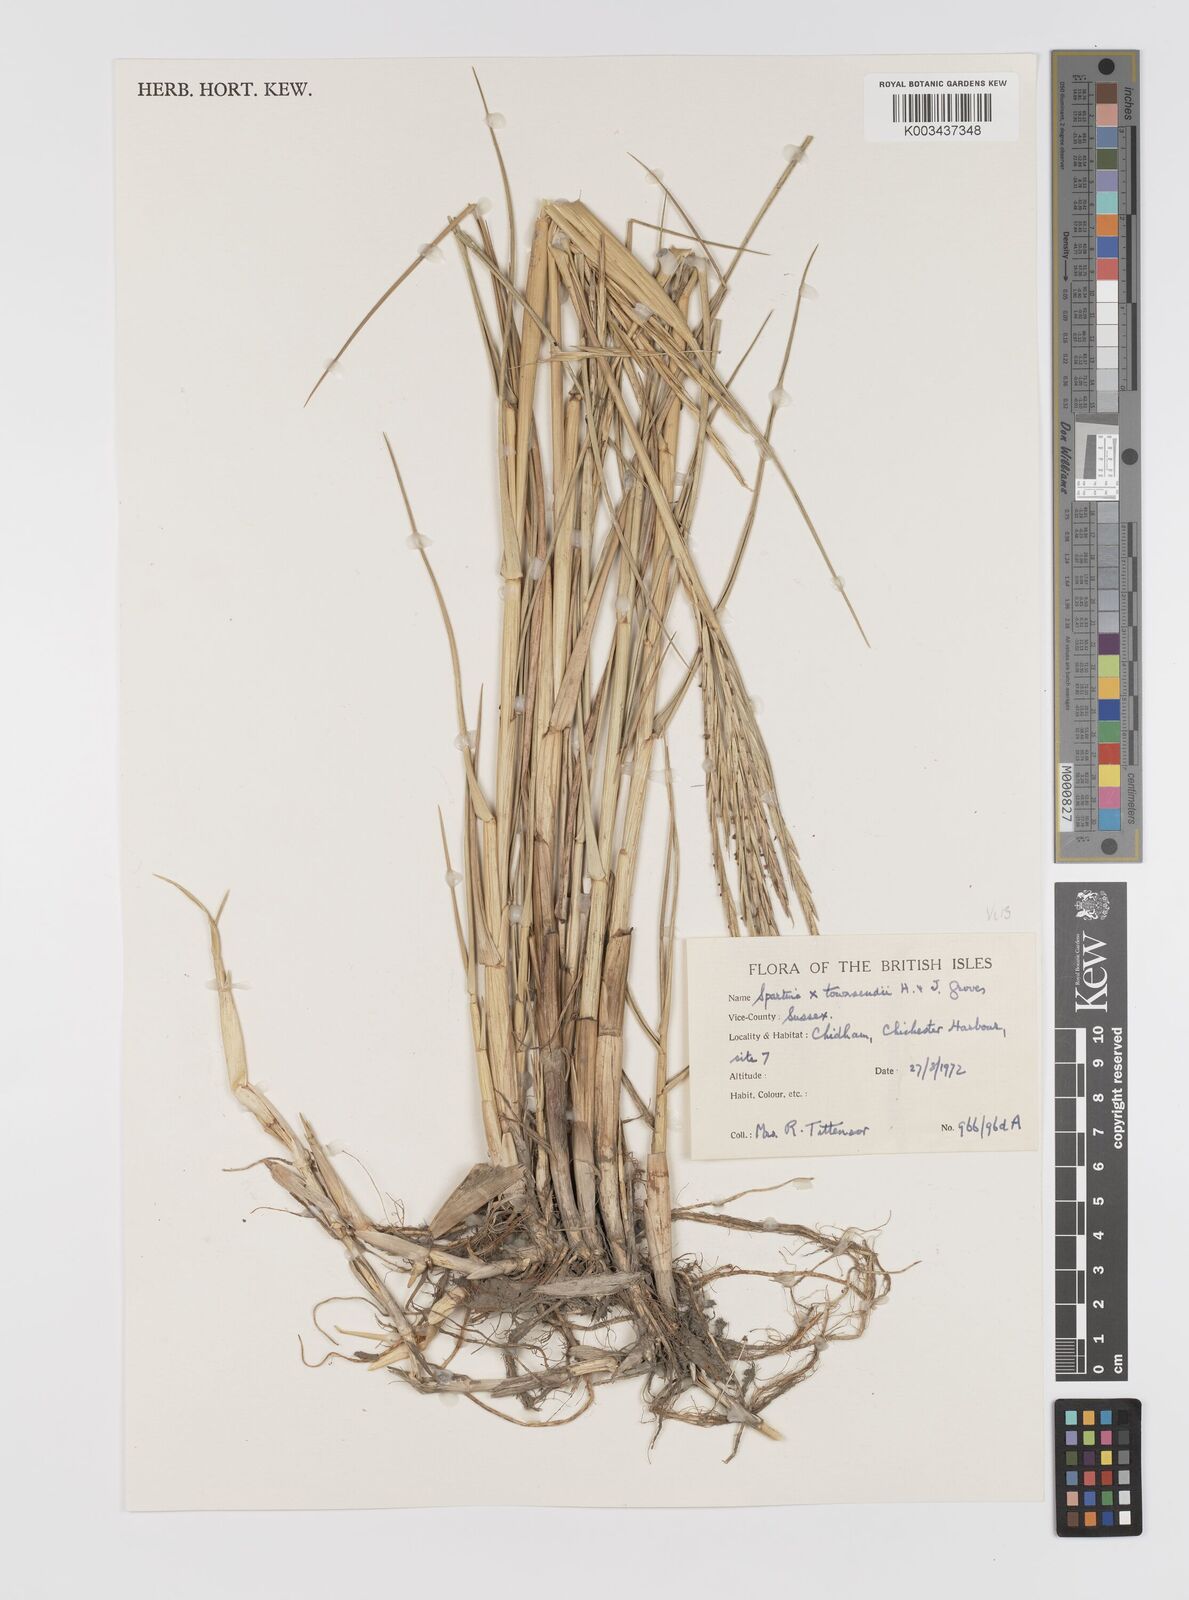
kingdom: Plantae
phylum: Tracheophyta
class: Liliopsida
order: Poales
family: Poaceae
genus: Sporobolus
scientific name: Sporobolus townsendii
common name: Townsend's cordgrass
